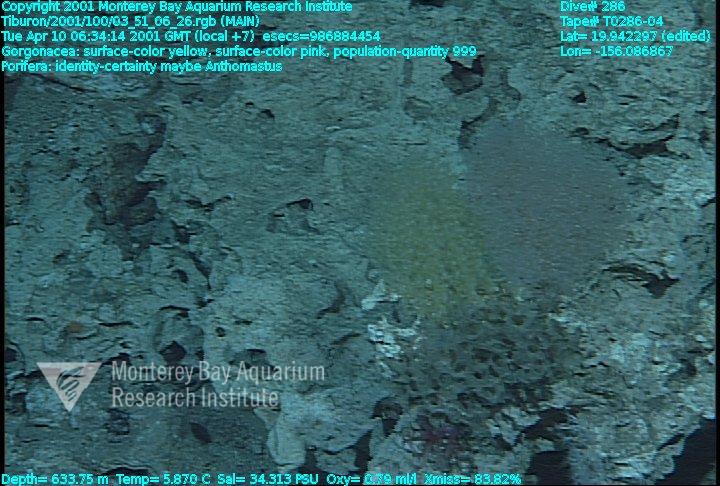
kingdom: Animalia
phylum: Porifera
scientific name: Porifera
